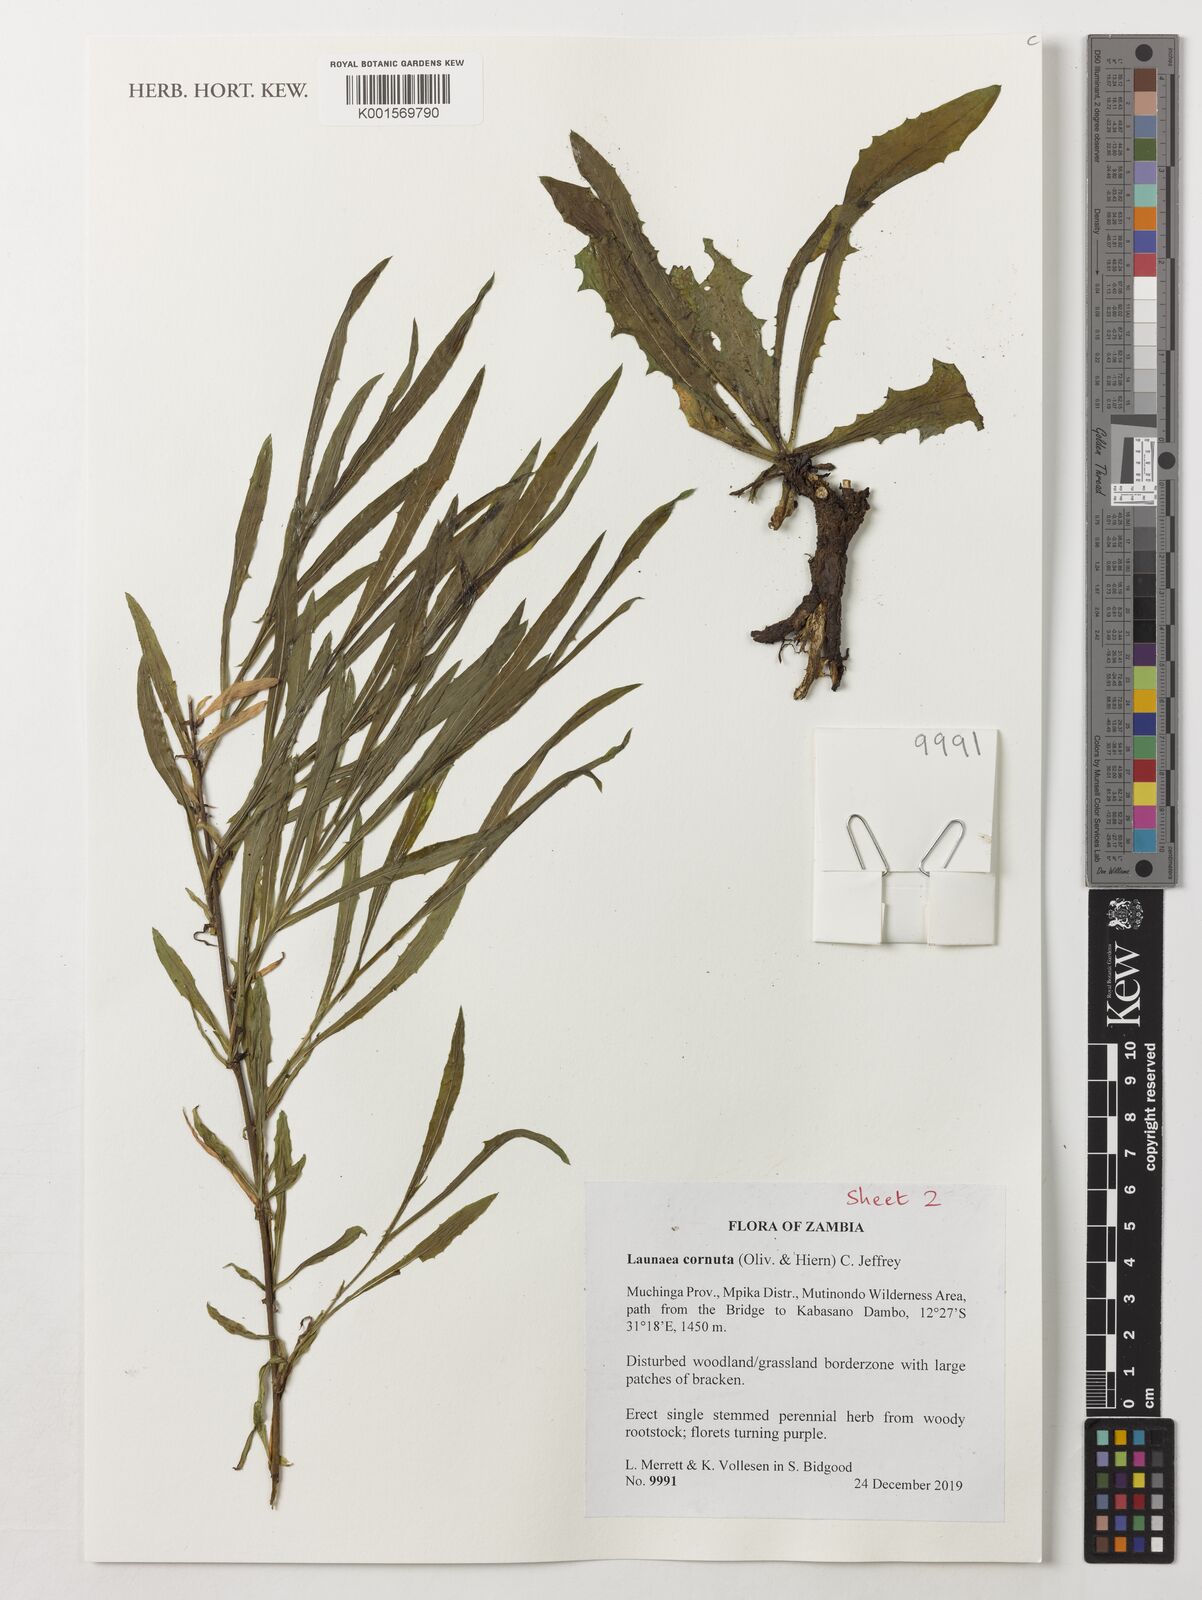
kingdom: Plantae
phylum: Tracheophyta
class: Magnoliopsida
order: Asterales
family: Asteraceae
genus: Lactuca
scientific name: Lactuca inermis
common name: Wild lettuce
